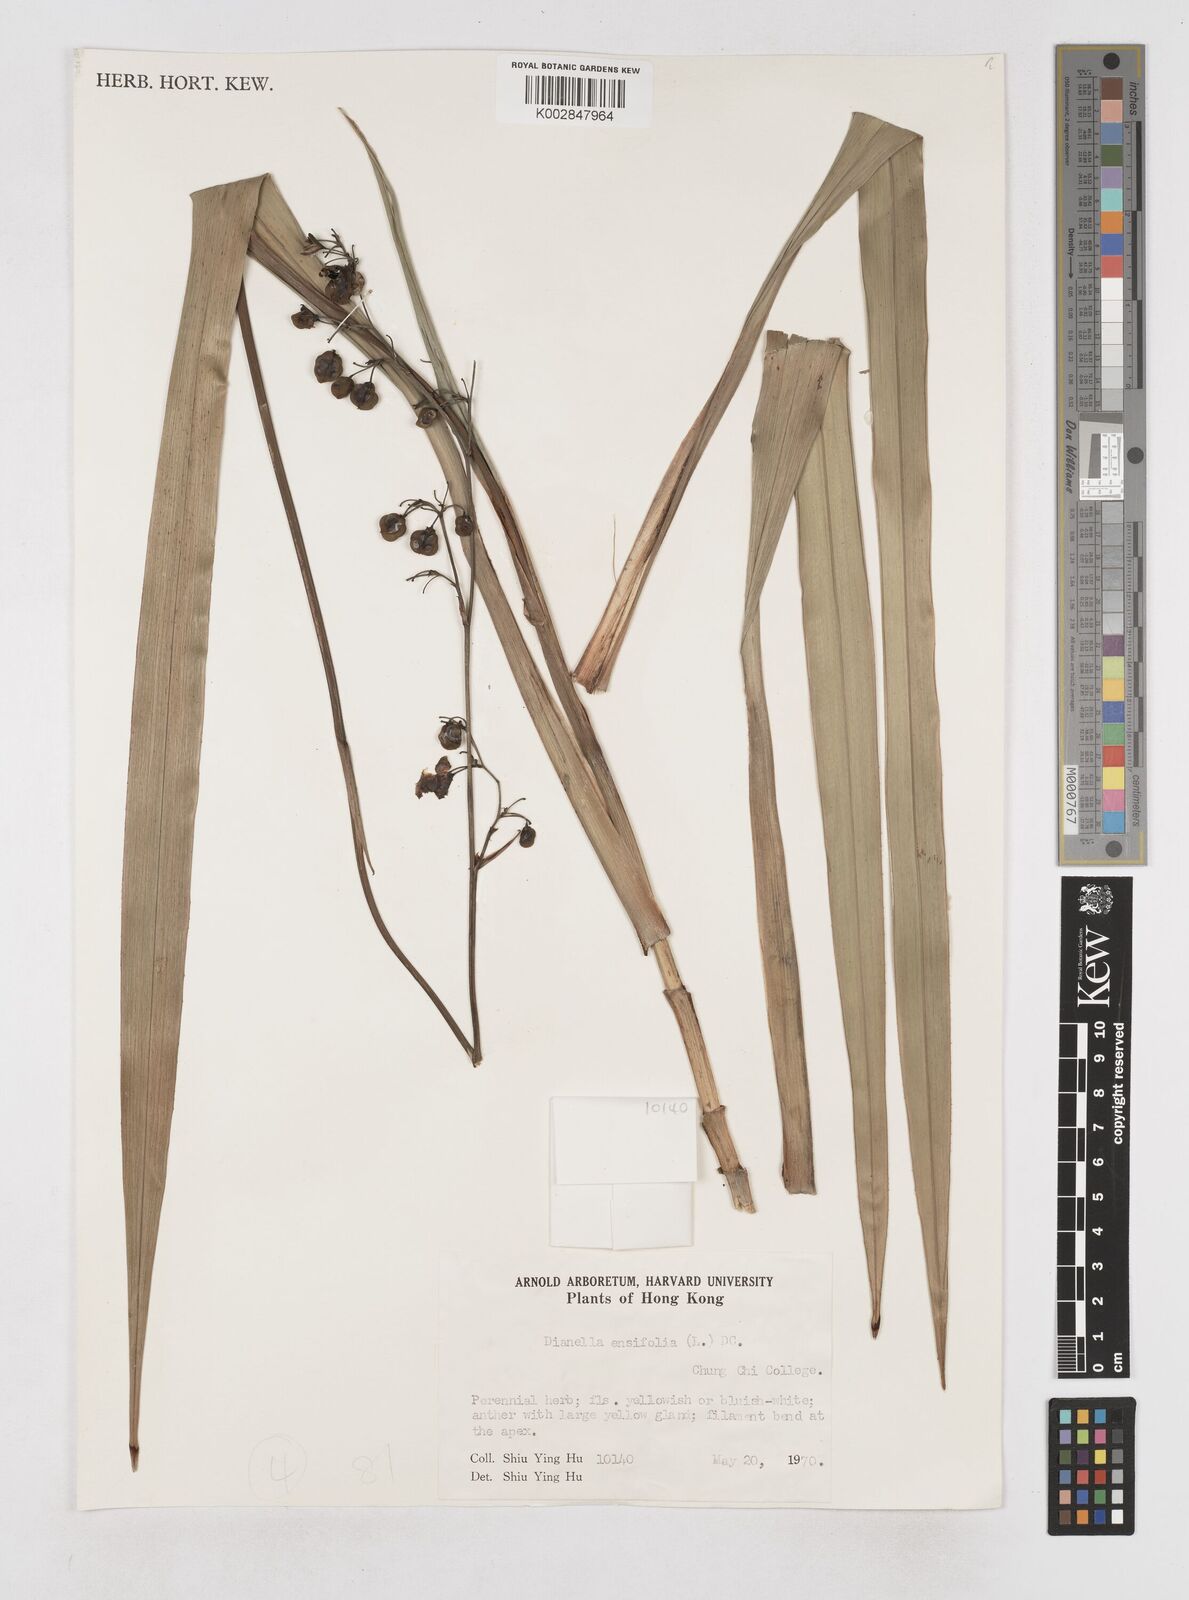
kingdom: Plantae
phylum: Tracheophyta
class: Liliopsida
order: Asparagales
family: Asphodelaceae
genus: Dianella
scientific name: Dianella ensifolia
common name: New zealand lilyplant
